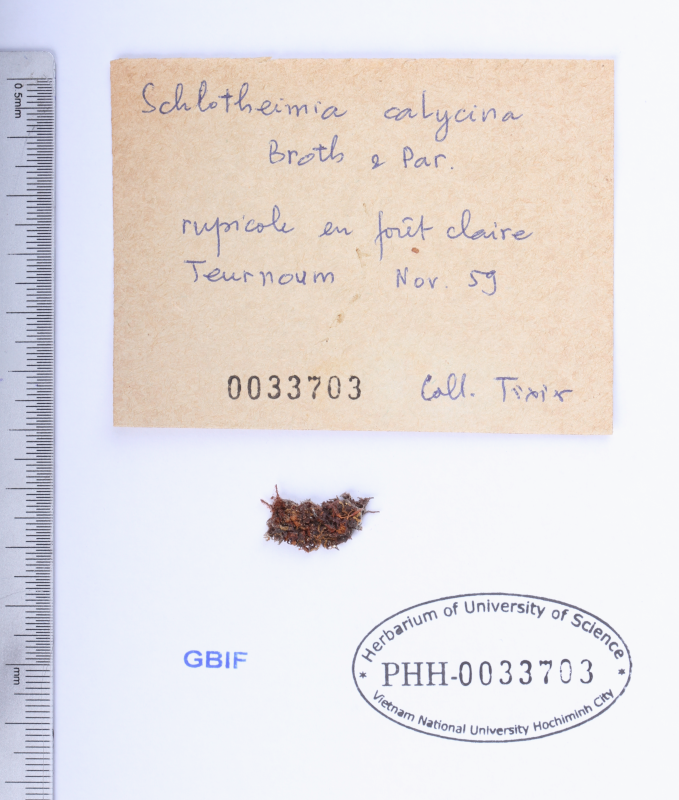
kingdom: Plantae
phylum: Bryophyta
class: Bryopsida
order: Orthotrichales
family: Orthotrichaceae
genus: Schlotheimia
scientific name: Schlotheimia ferruginea
